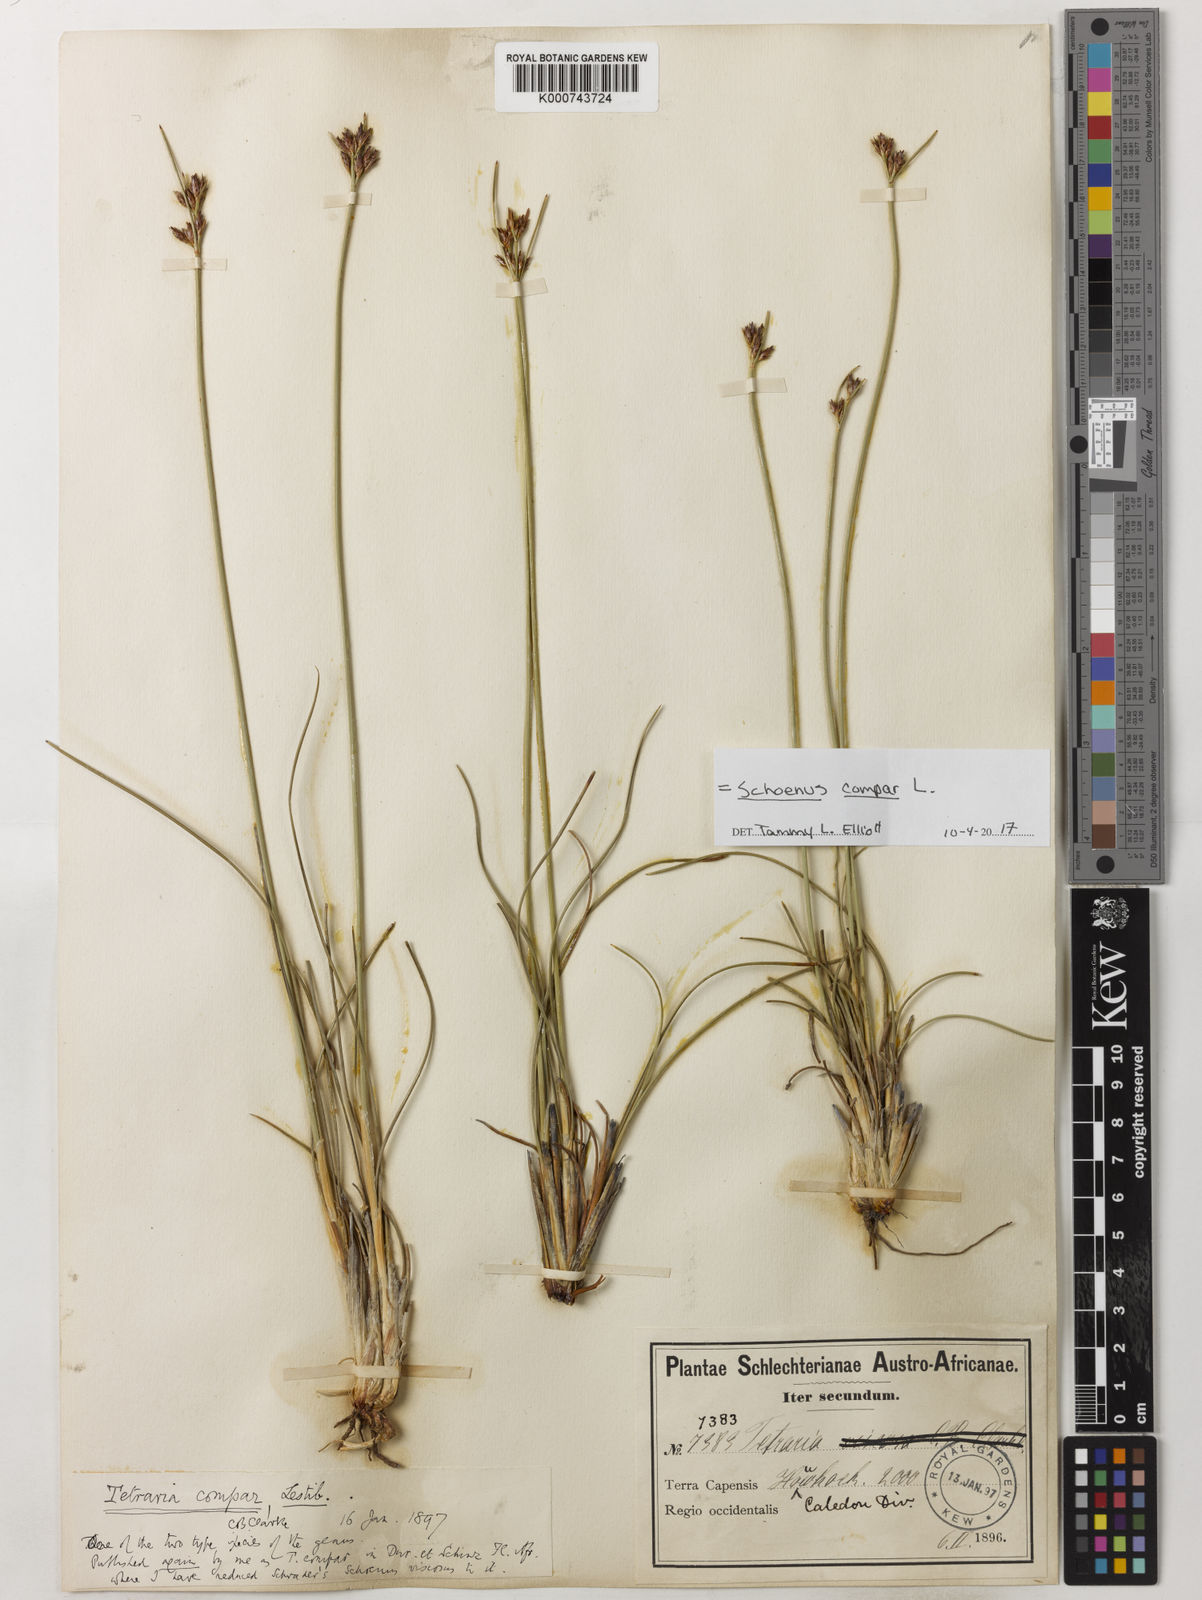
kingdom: Plantae
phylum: Tracheophyta
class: Liliopsida
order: Poales
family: Cyperaceae
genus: Schoenus
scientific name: Schoenus compar
